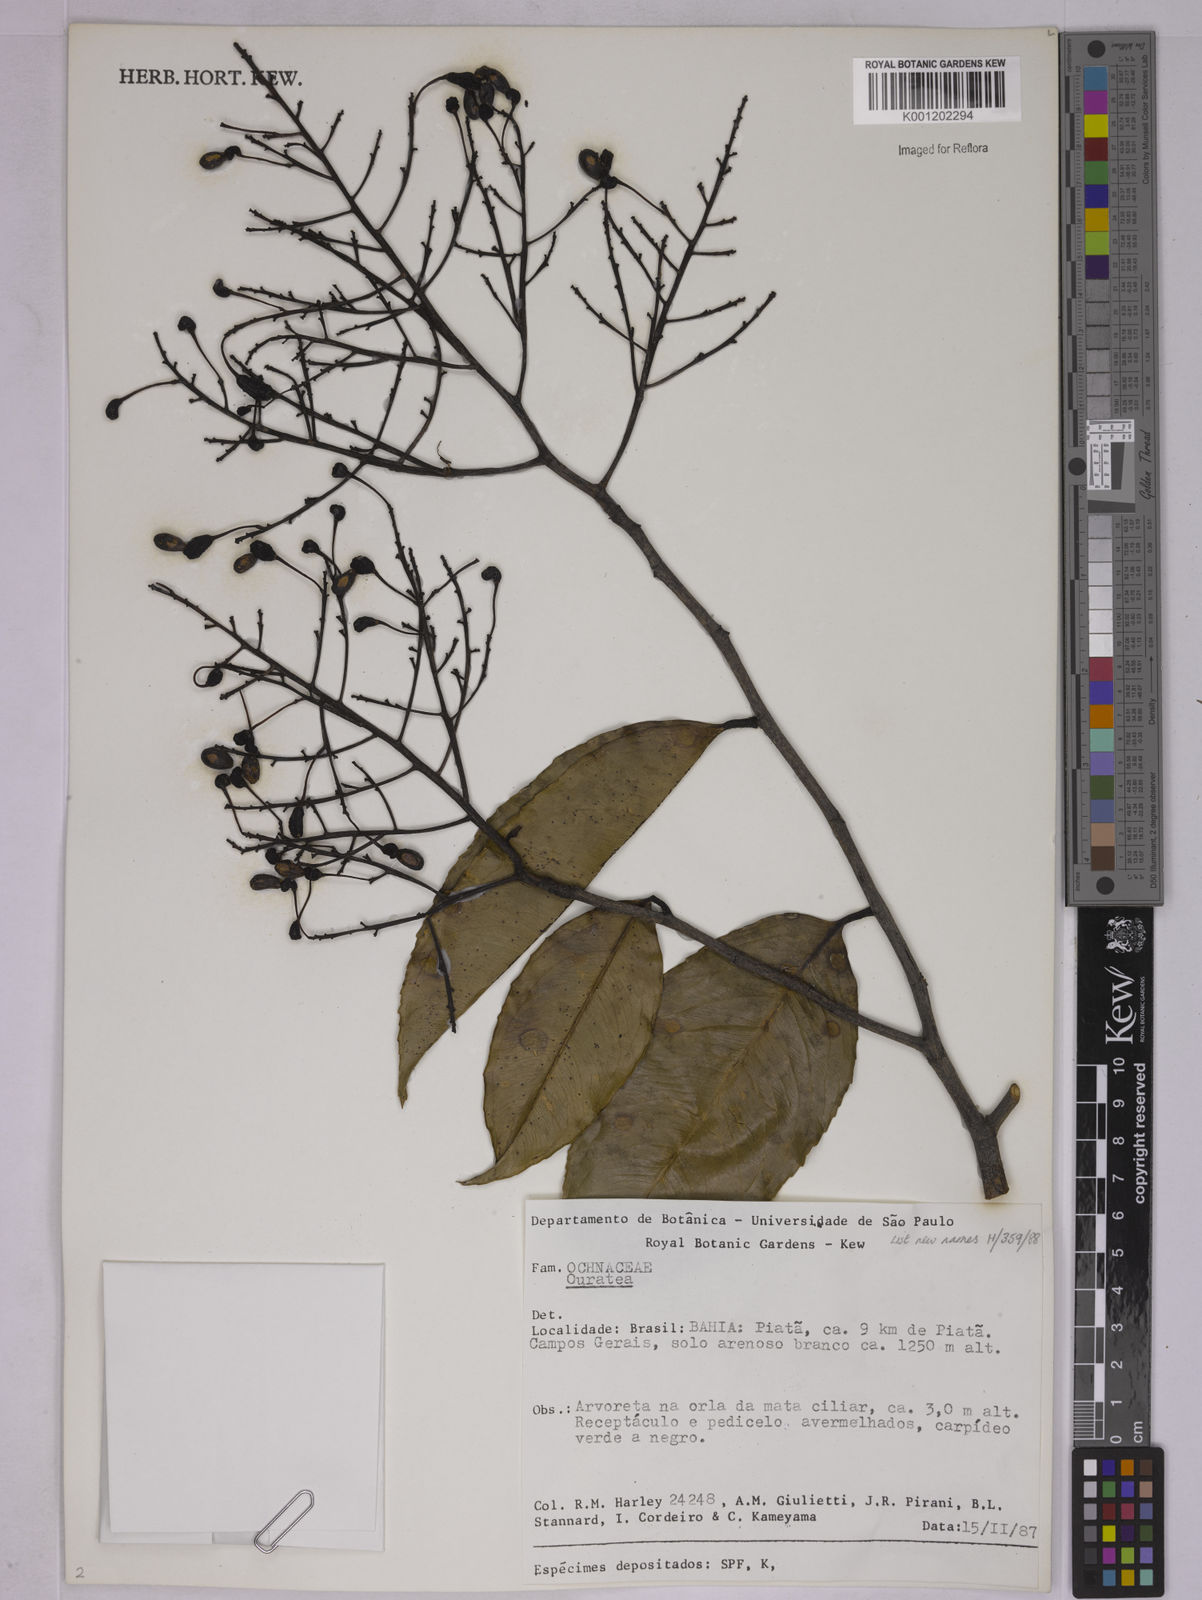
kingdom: Plantae
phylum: Tracheophyta
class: Magnoliopsida
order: Malpighiales
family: Ochnaceae
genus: Ouratea
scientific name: Ouratea
